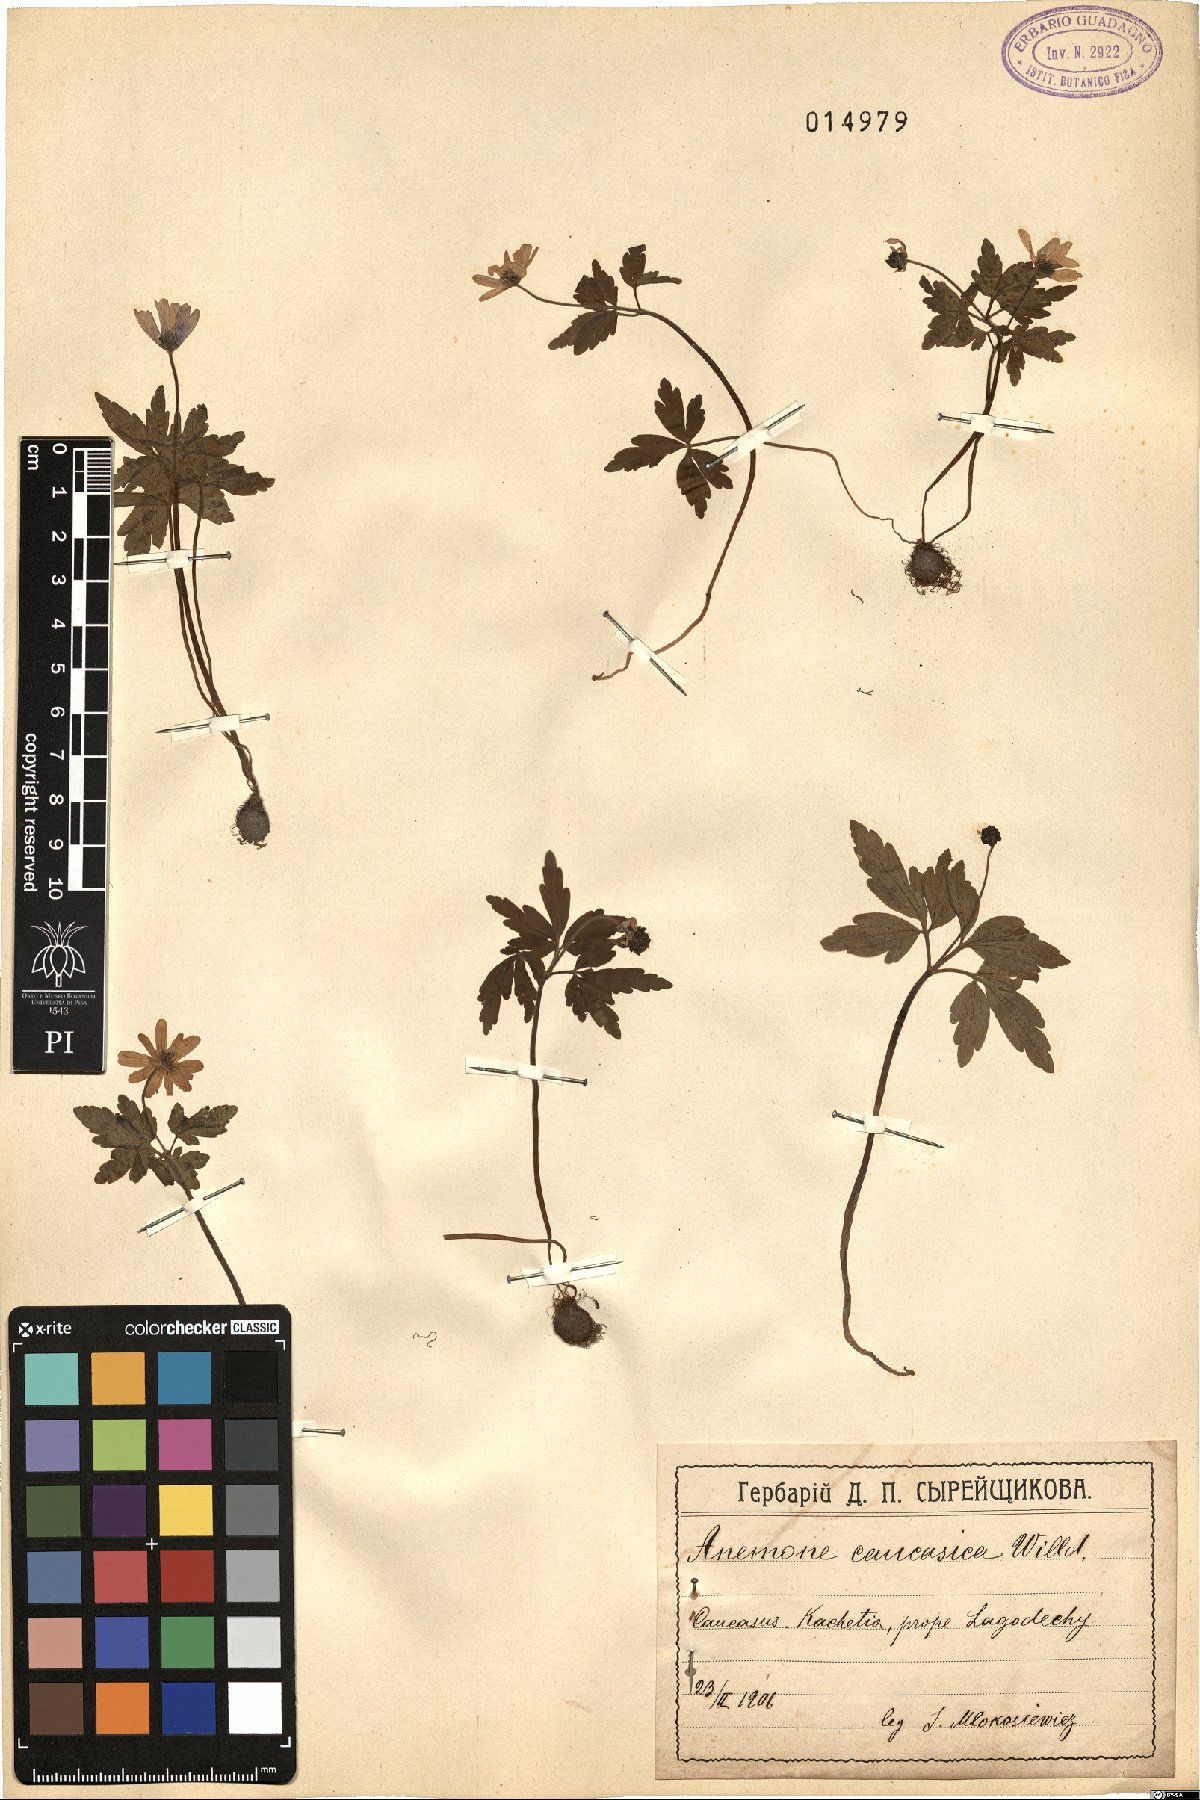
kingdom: Plantae
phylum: Tracheophyta
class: Magnoliopsida
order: Ranunculales
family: Ranunculaceae
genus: Anemone
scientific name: Anemone caucasica
